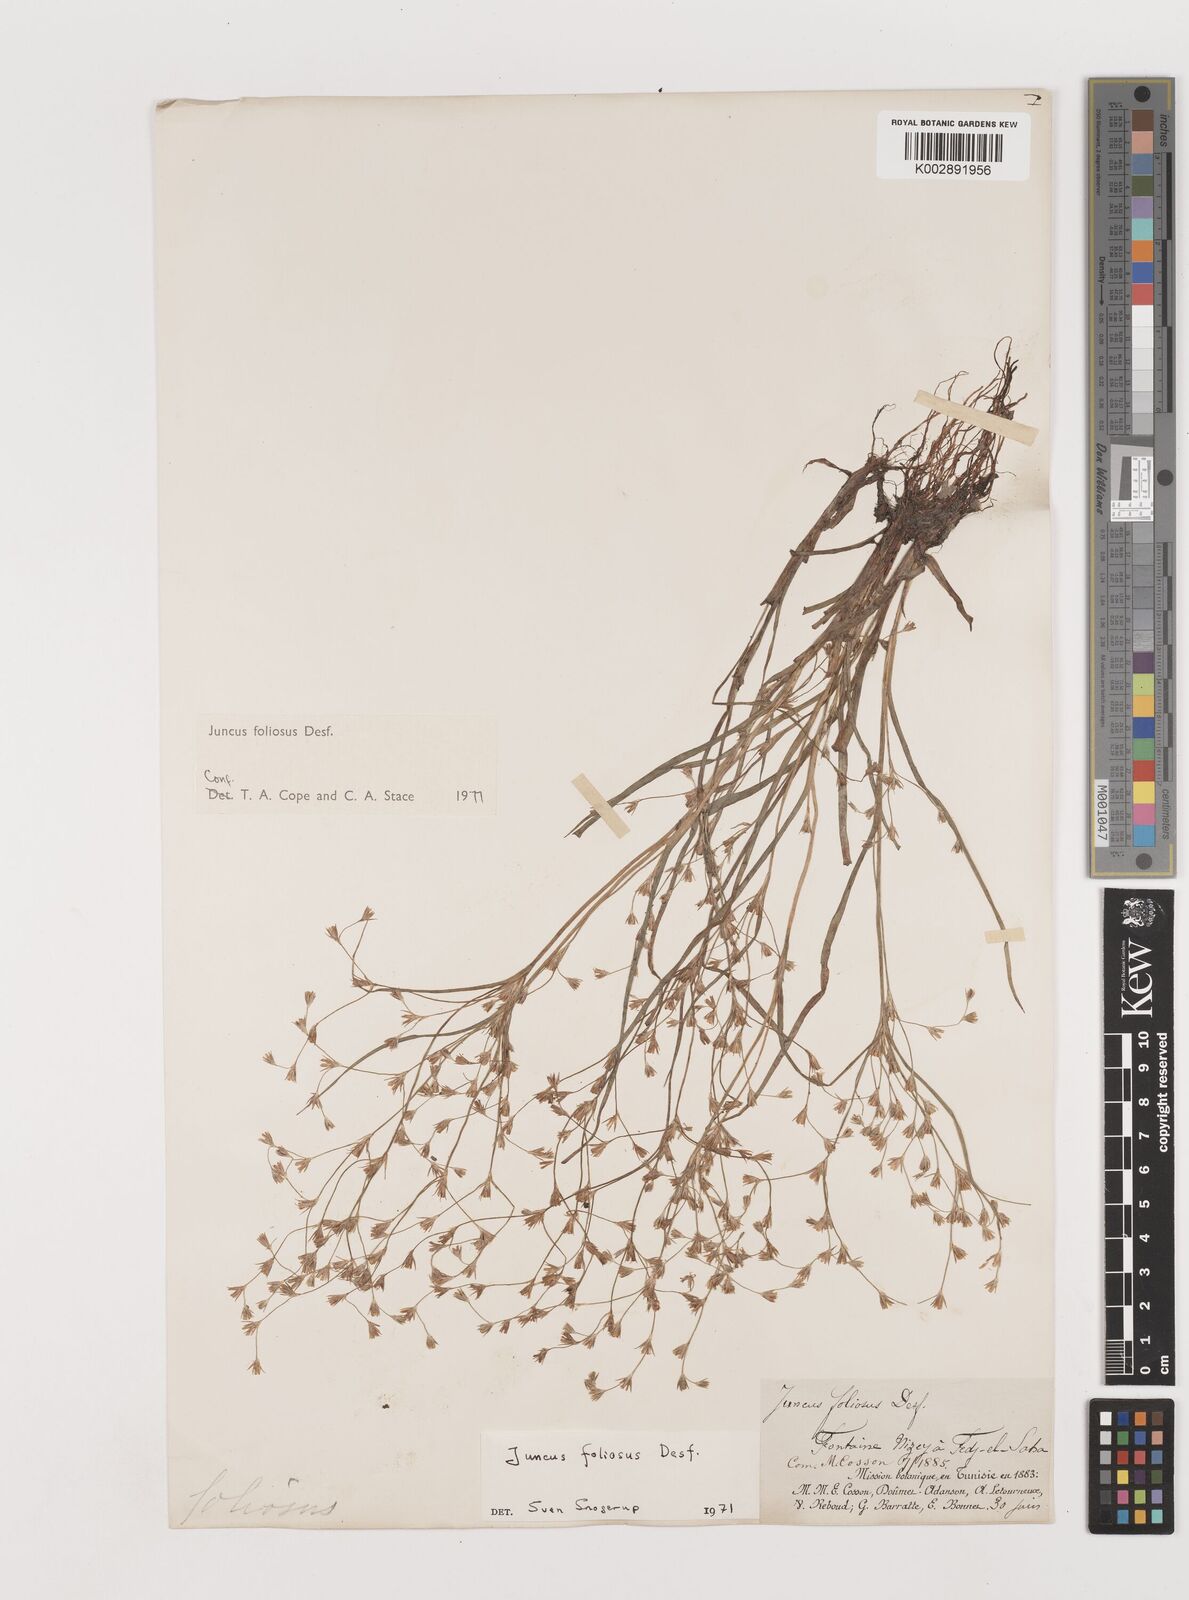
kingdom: Plantae
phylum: Tracheophyta
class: Liliopsida
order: Poales
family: Juncaceae
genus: Juncus
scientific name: Juncus acutiflorus
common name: Sharp-flowered rush
